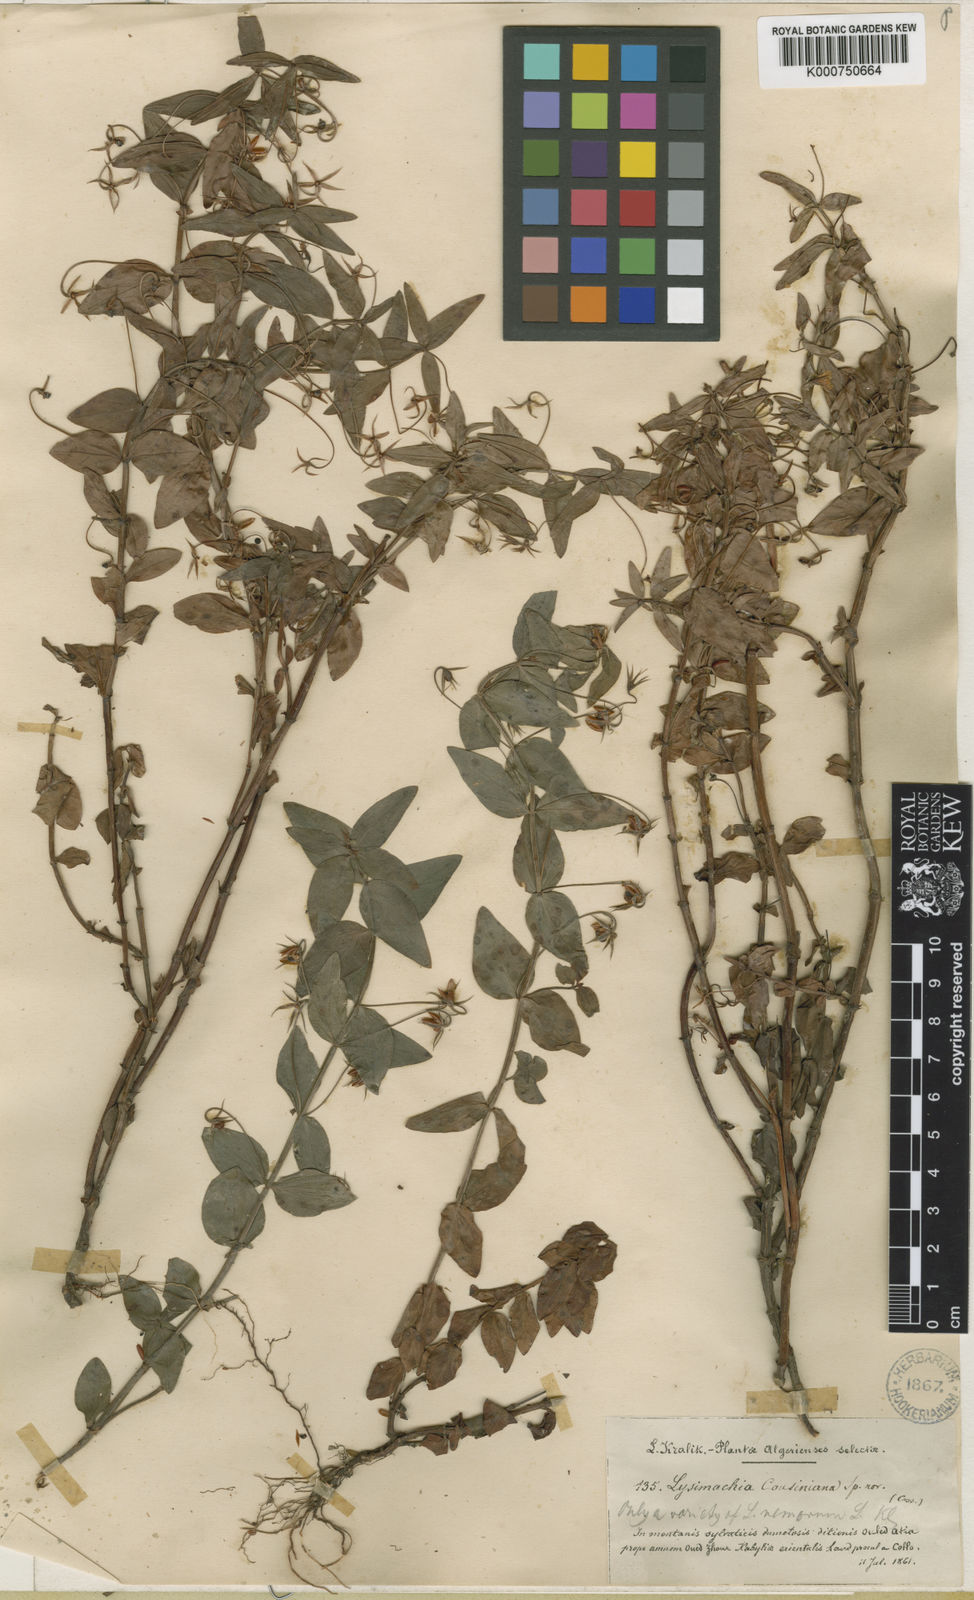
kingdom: Plantae
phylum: Tracheophyta
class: Magnoliopsida
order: Ericales
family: Primulaceae
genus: Lysimachia
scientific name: Lysimachia nemorum
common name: Yellow pimpernel
